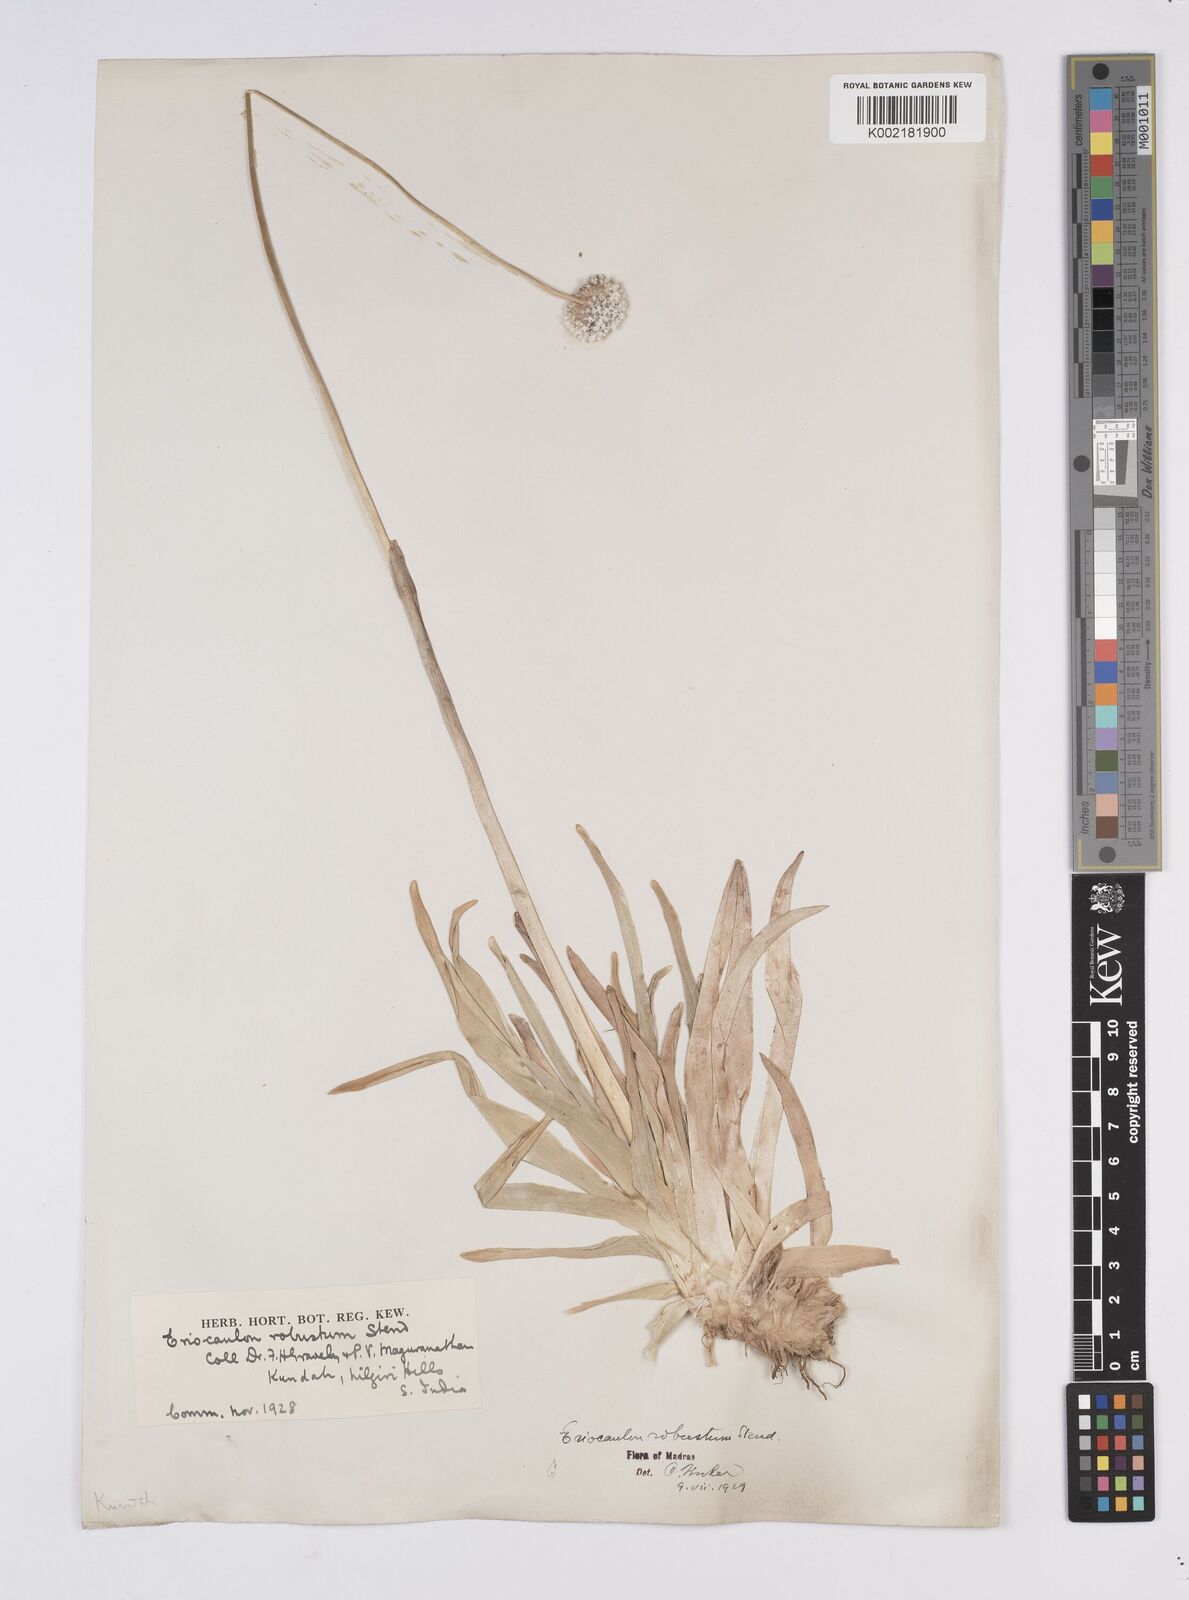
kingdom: Plantae
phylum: Tracheophyta
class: Liliopsida
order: Poales
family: Eriocaulaceae
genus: Eriocaulon
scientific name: Eriocaulon robustum
